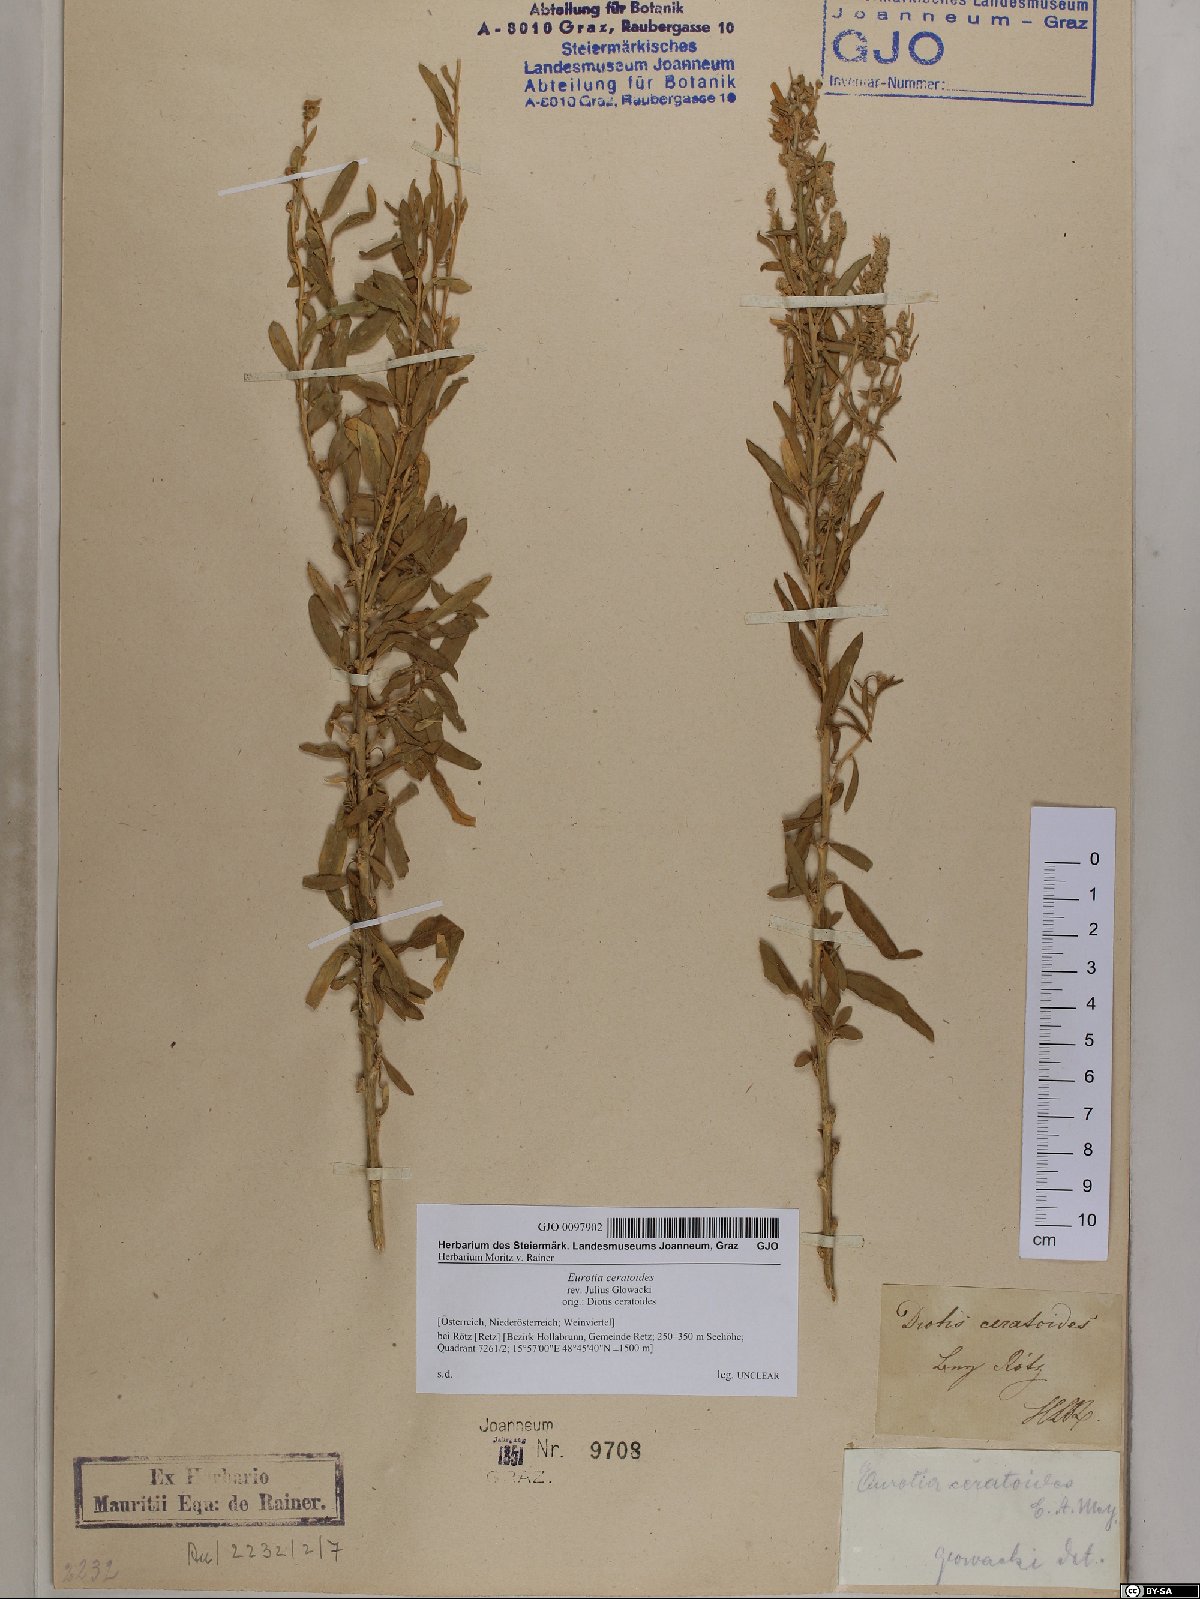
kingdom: Plantae
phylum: Tracheophyta
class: Magnoliopsida
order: Caryophyllales
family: Amaranthaceae
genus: Krascheninnikovia
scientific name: Krascheninnikovia ceratoides
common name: Pamirian winterfat
